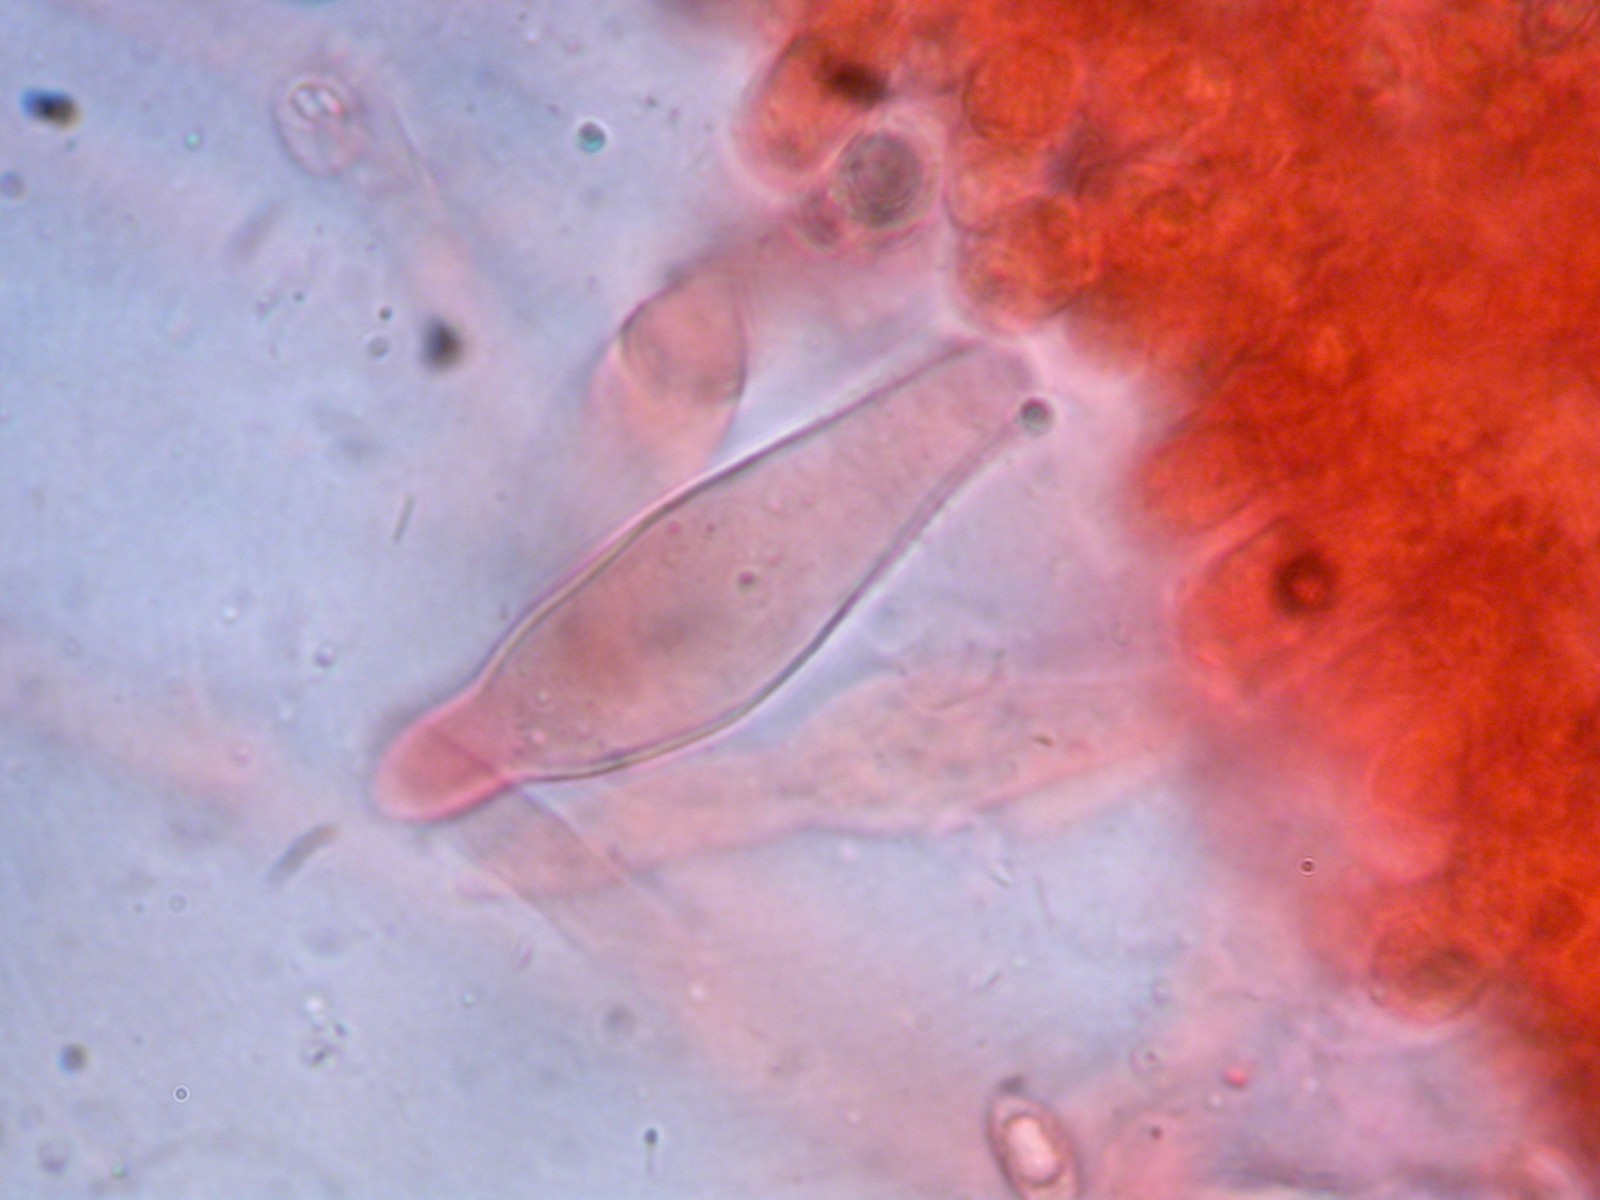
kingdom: Fungi
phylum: Basidiomycota
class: Agaricomycetes
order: Agaricales
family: Tricholomataceae
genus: Melanoleuca
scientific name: Melanoleuca
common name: munkehat
